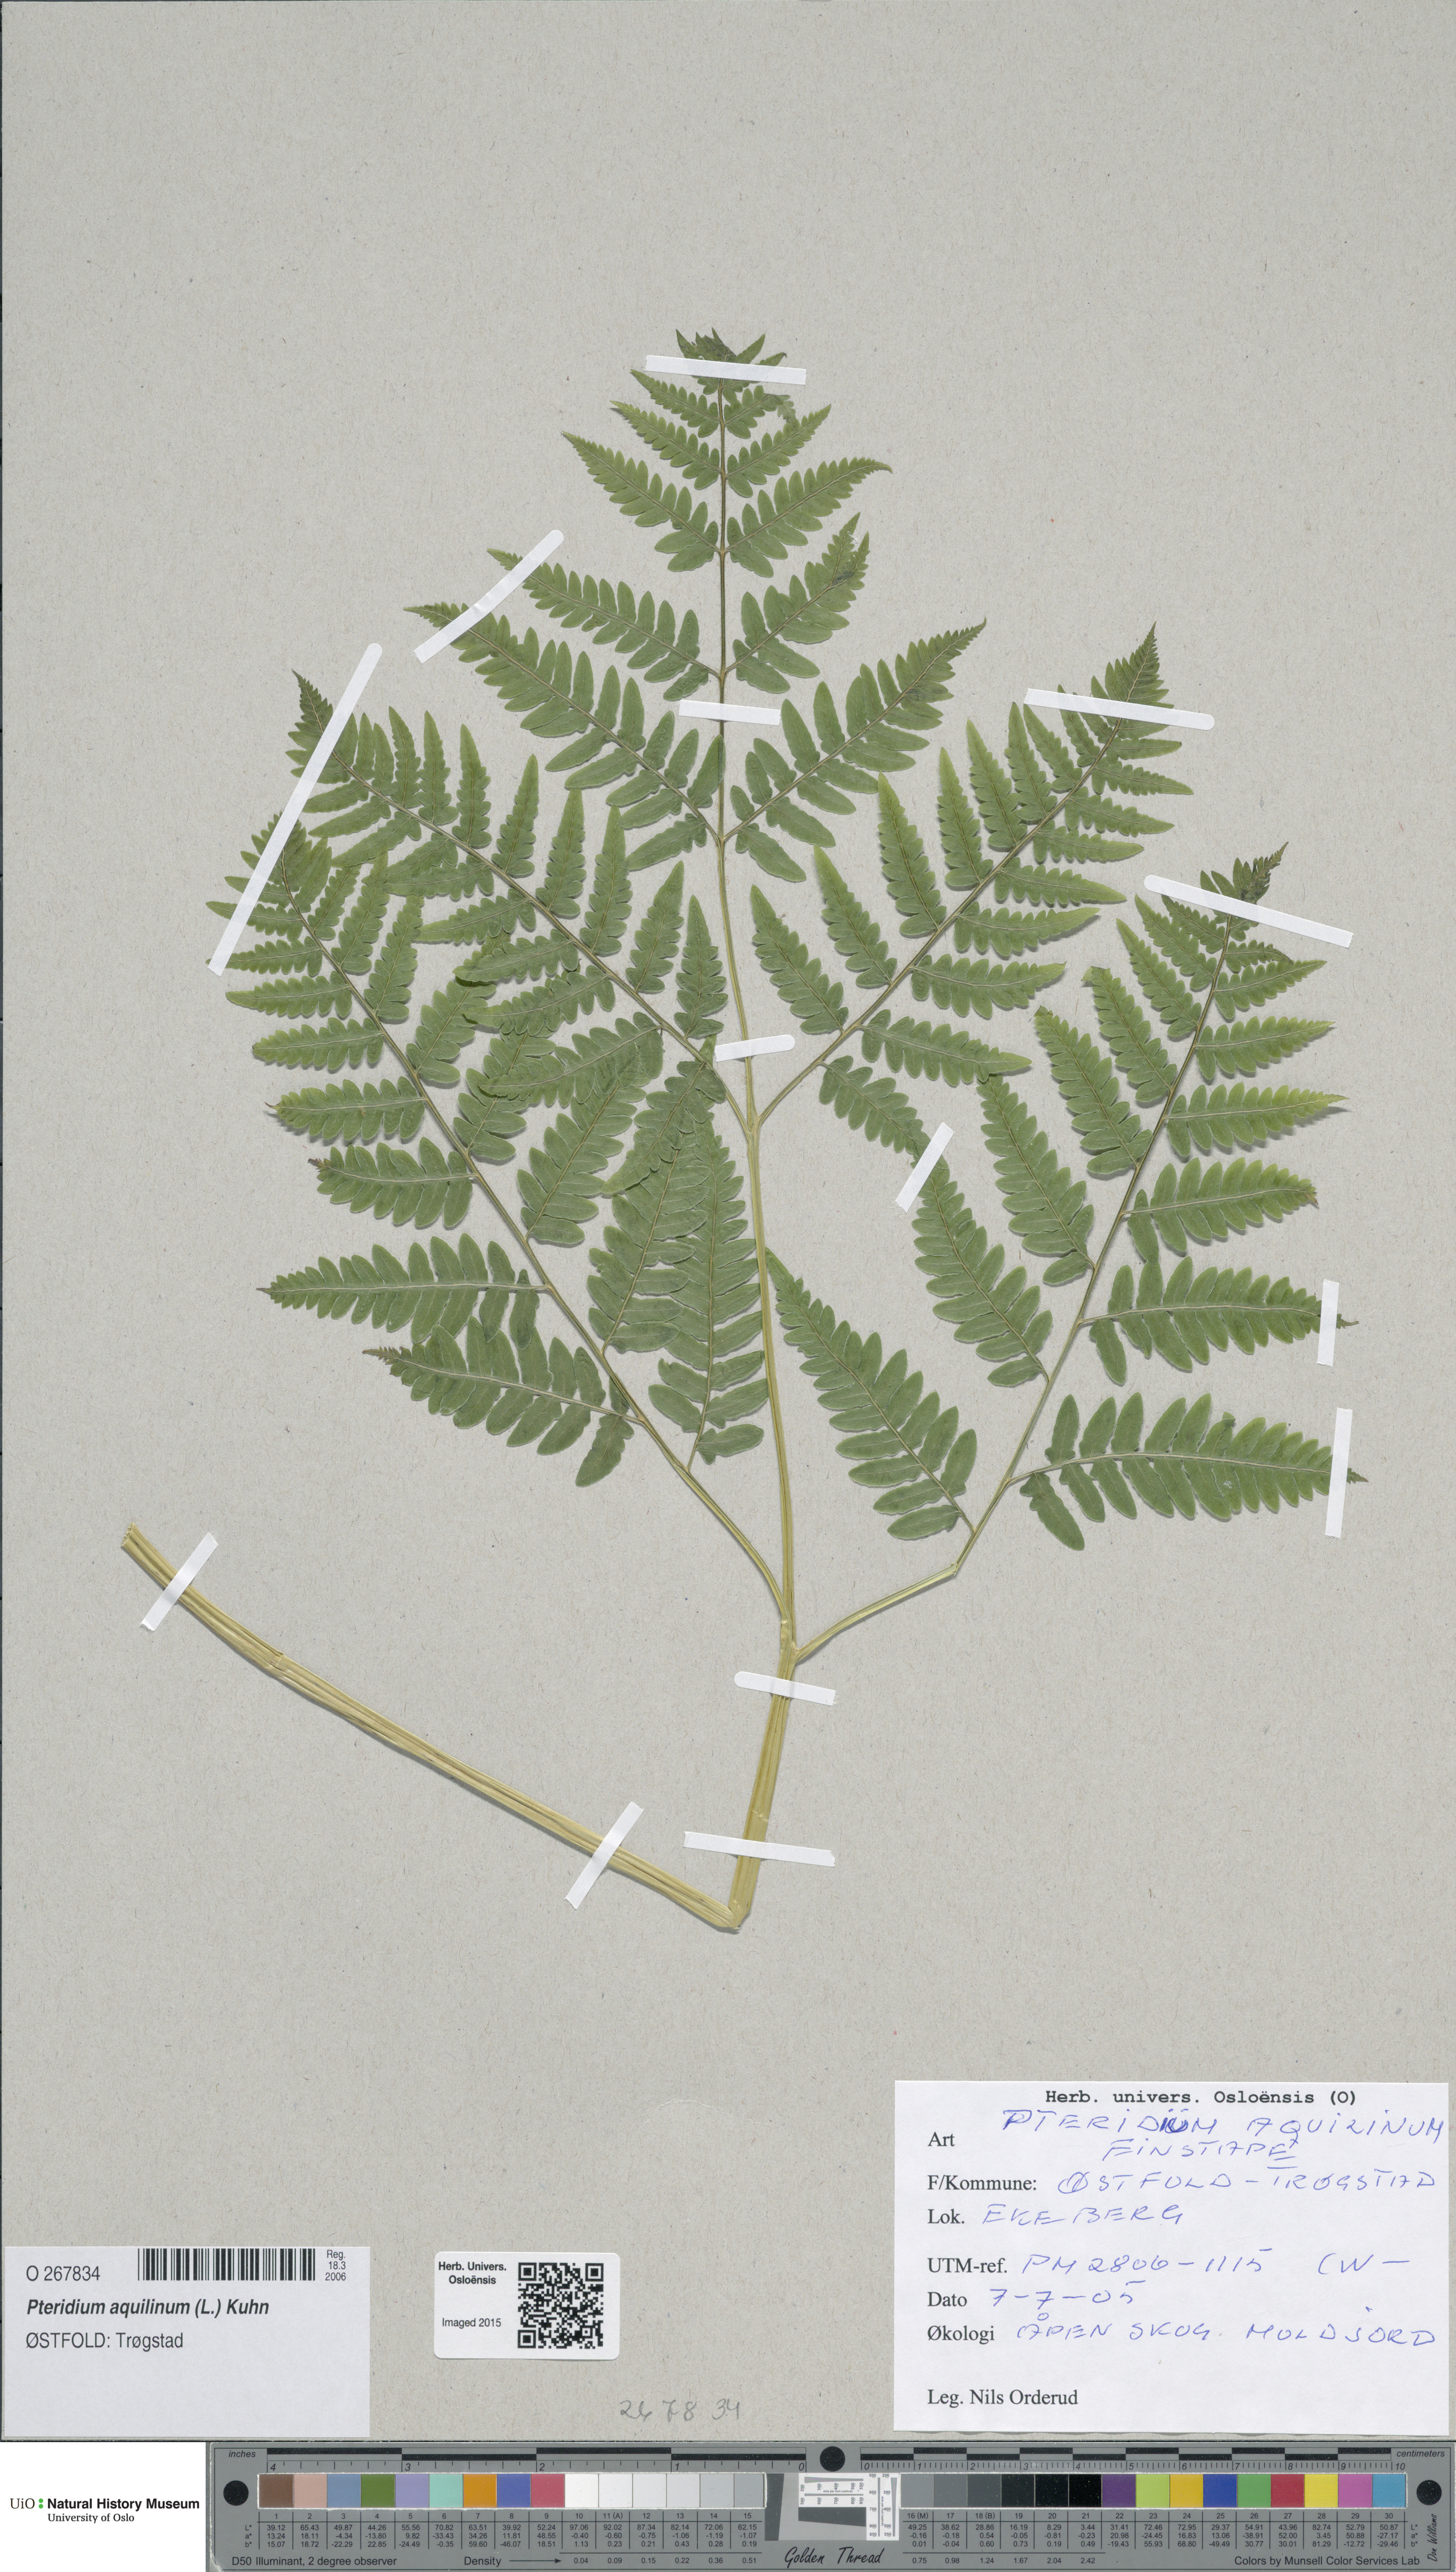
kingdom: Plantae
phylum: Tracheophyta
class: Polypodiopsida
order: Polypodiales
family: Dennstaedtiaceae
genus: Pteridium
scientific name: Pteridium aquilinum
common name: Bracken
